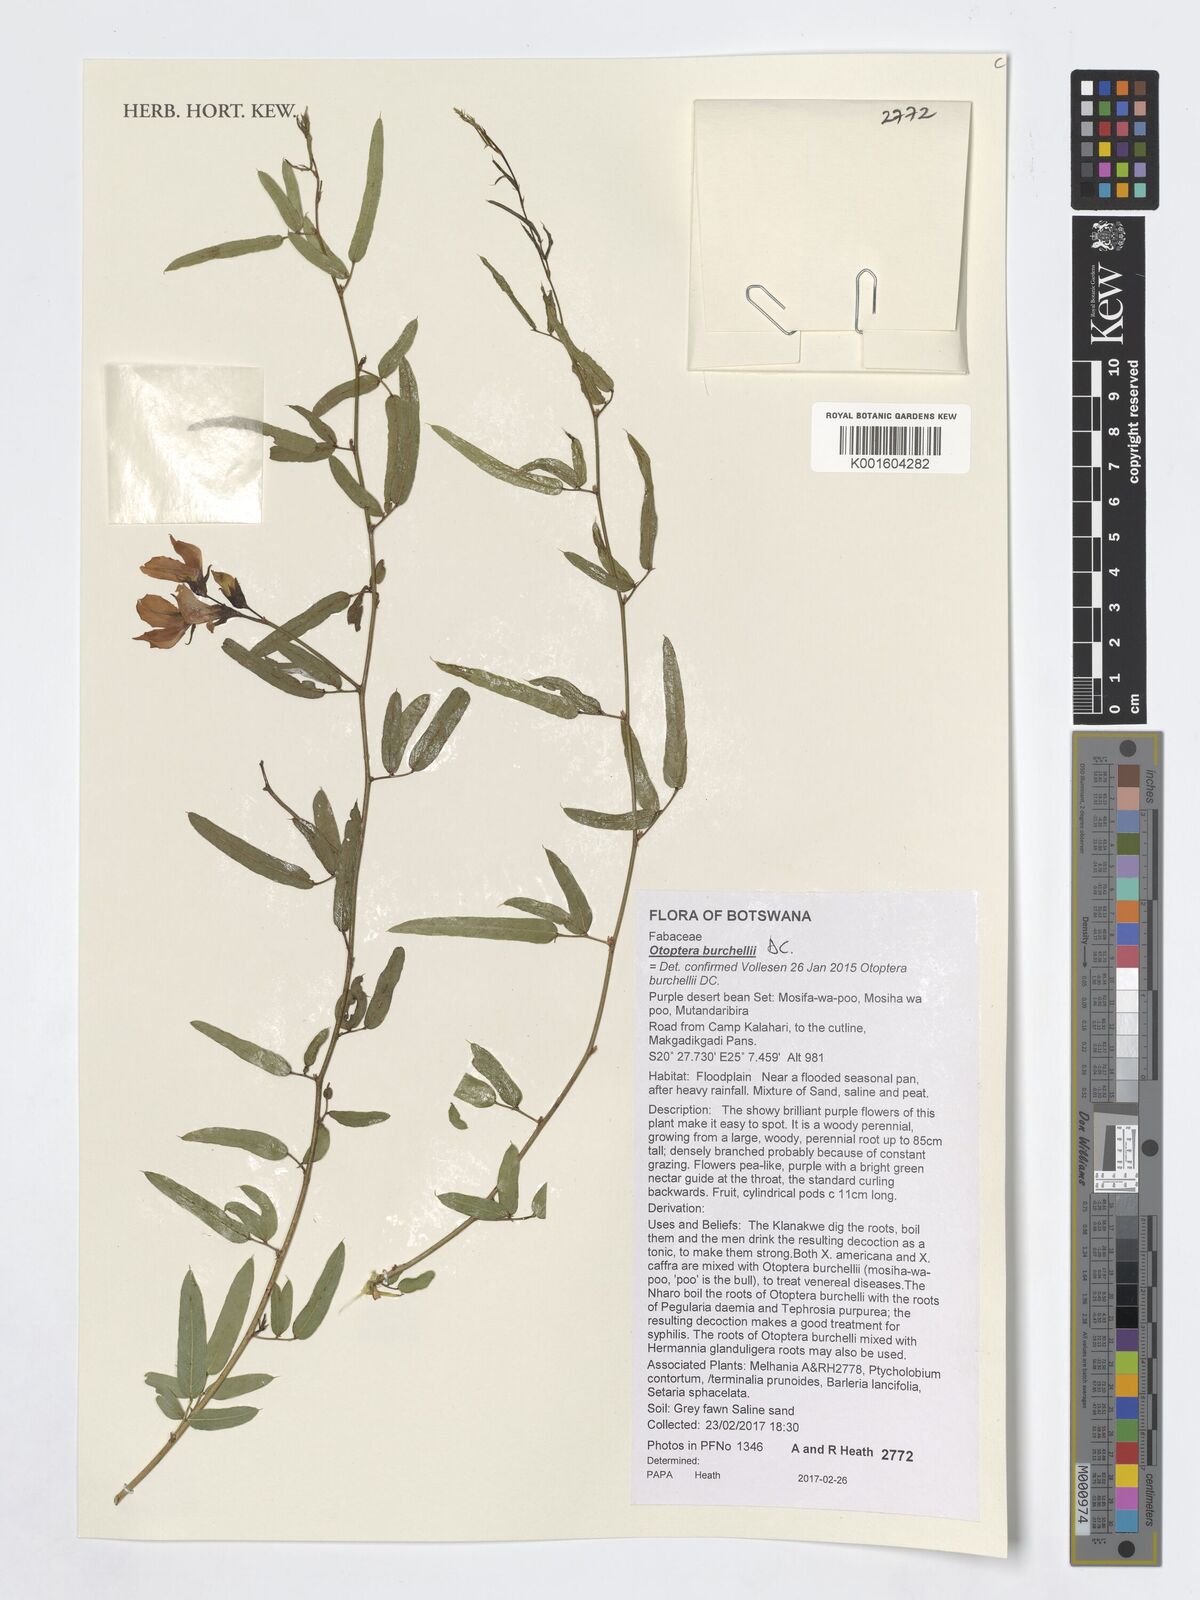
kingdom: Plantae
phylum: Tracheophyta
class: Magnoliopsida
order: Fabales
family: Fabaceae
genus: Otoptera
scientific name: Otoptera burchellii
